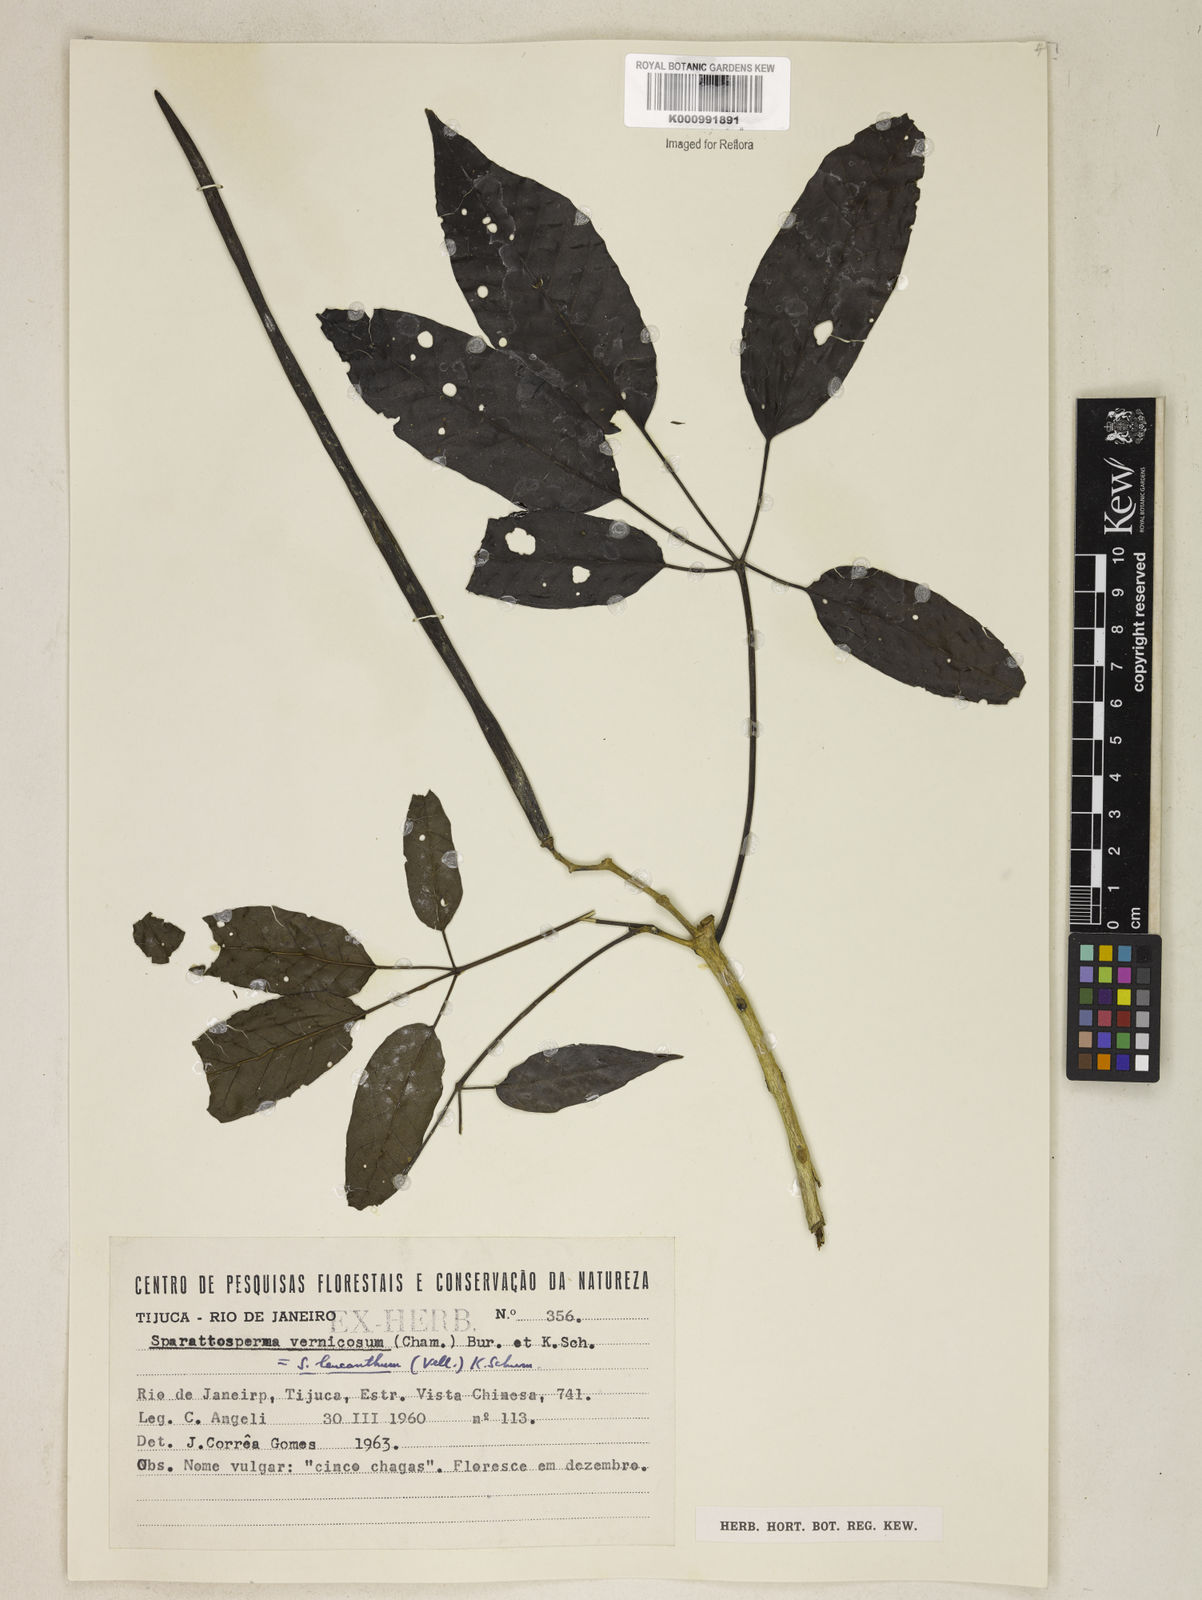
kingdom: Plantae
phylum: Tracheophyta
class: Magnoliopsida
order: Lamiales
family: Bignoniaceae
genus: Sparattosperma
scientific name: Sparattosperma leucanthum
